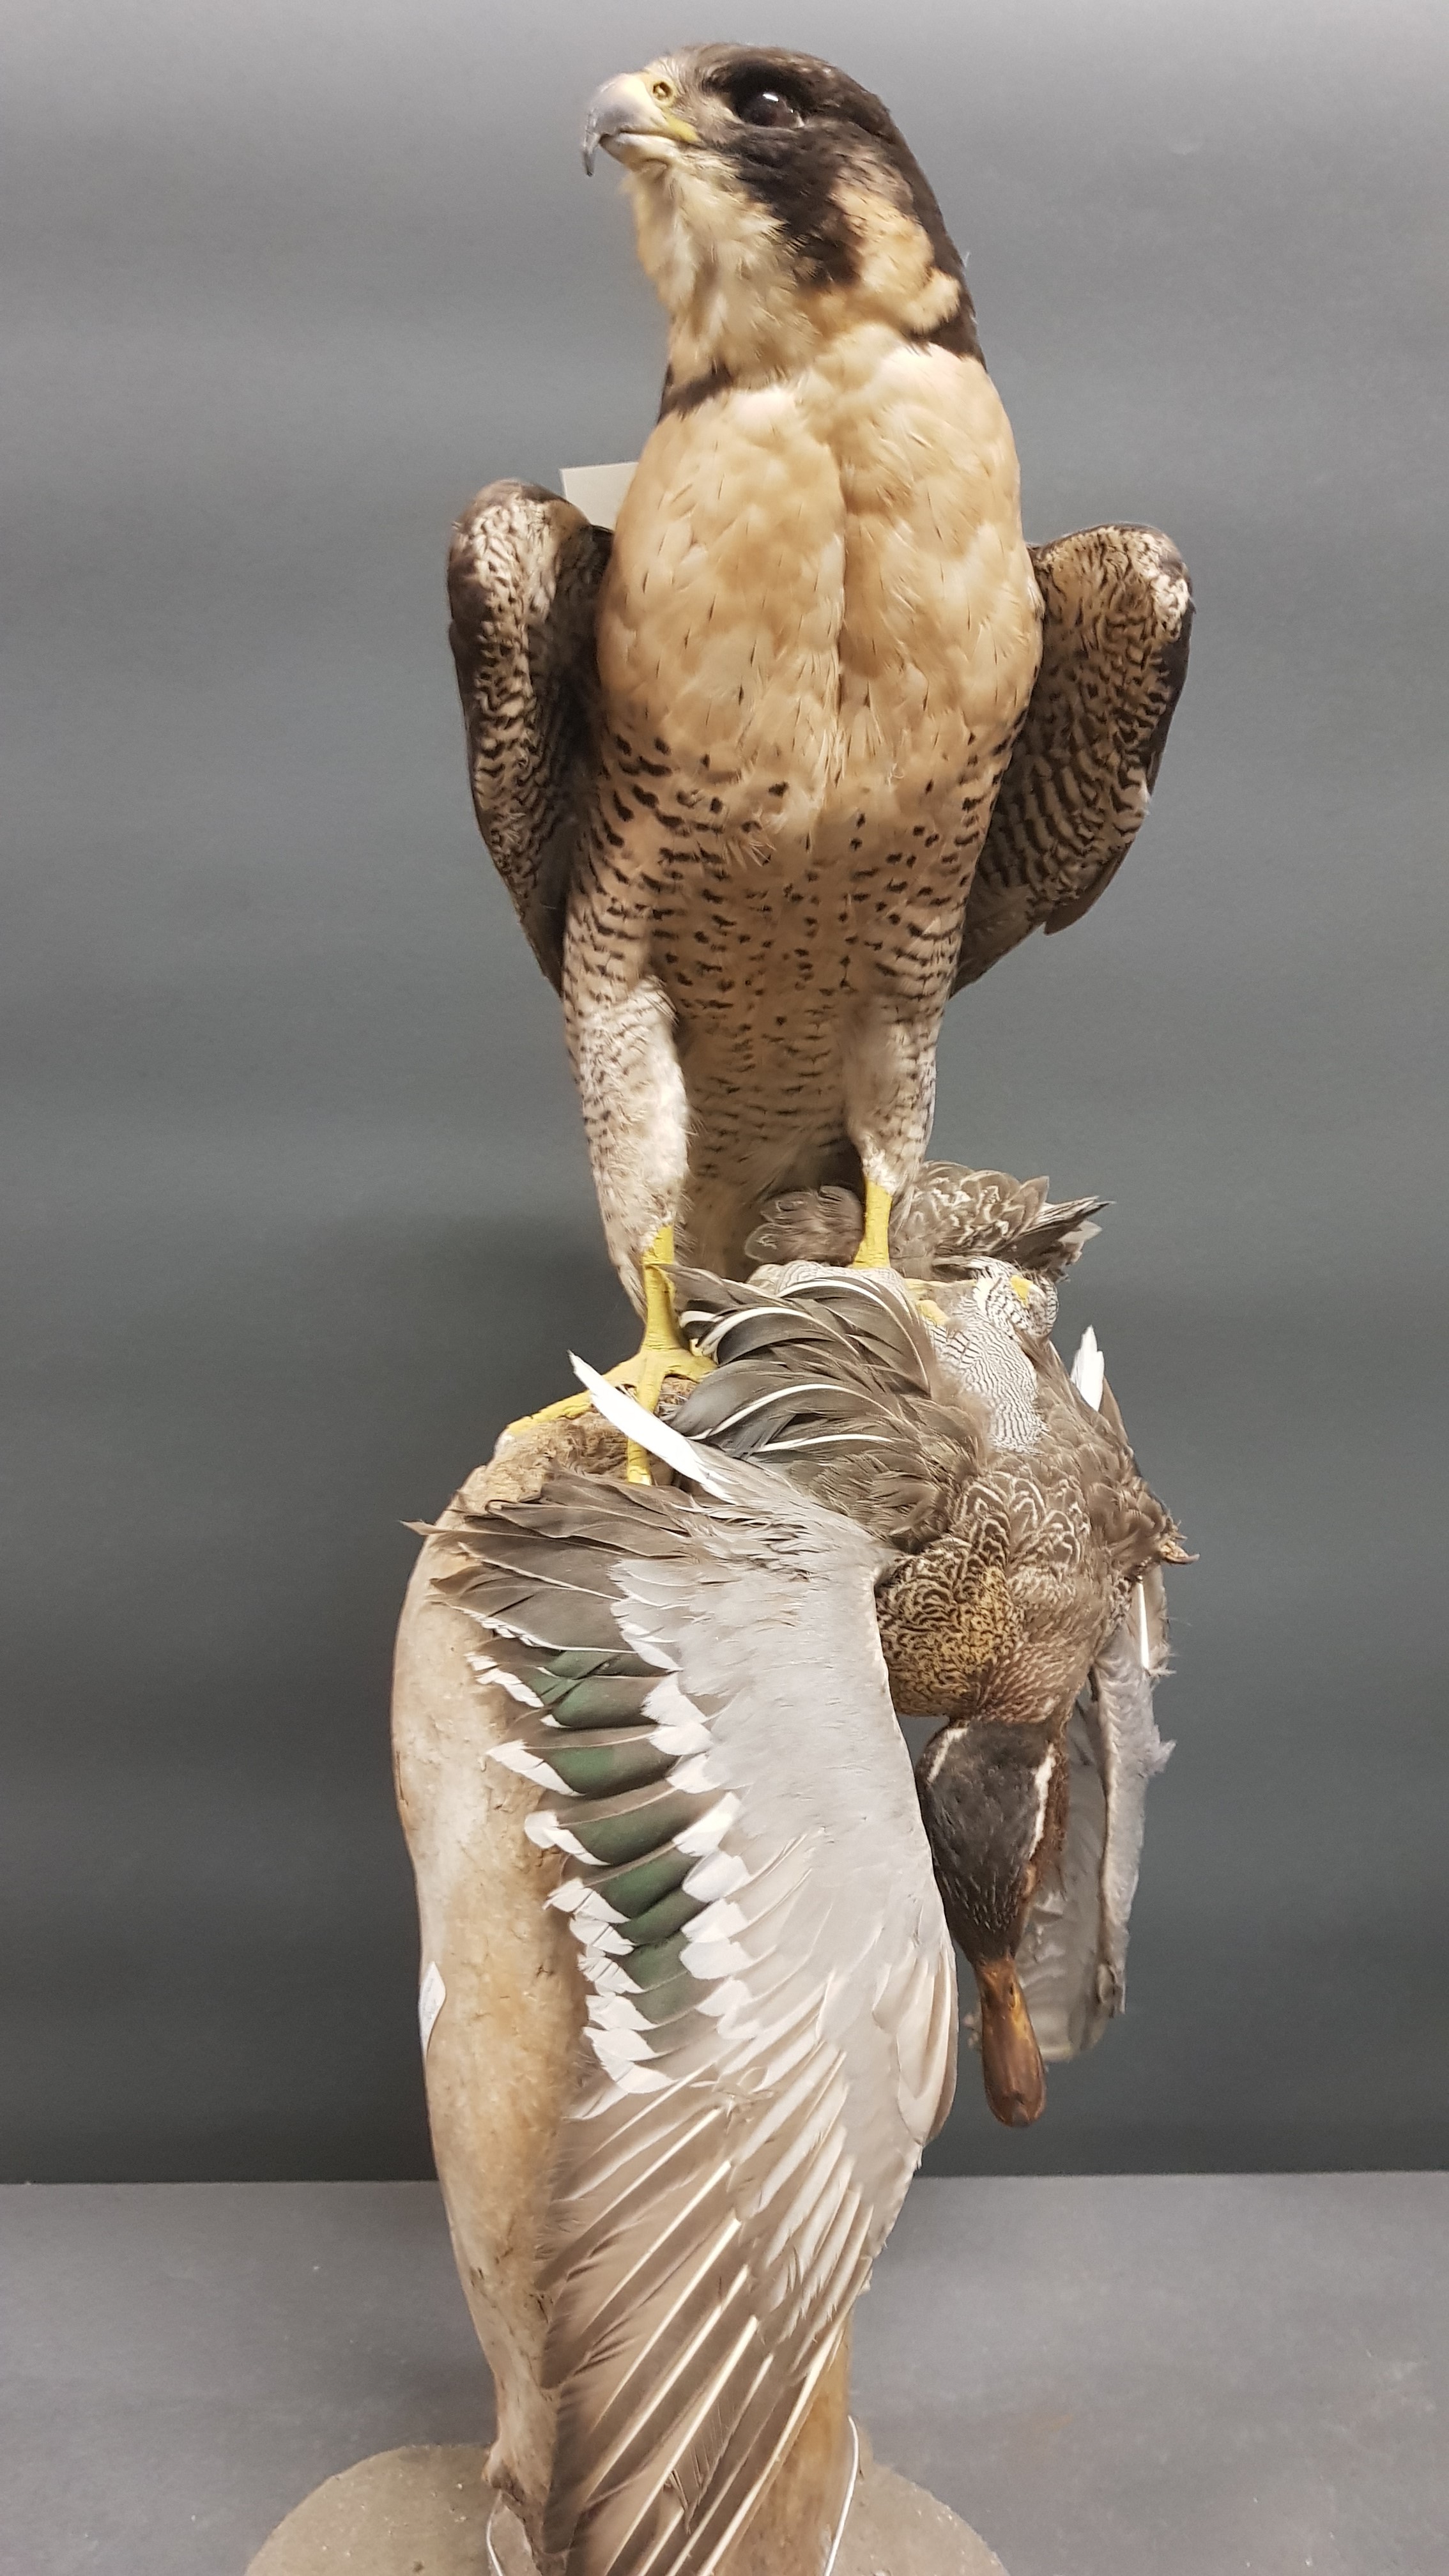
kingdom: Animalia
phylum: Chordata
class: Aves
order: Falconiformes
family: Falconidae
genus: Falco
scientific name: Falco peregrinus
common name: Peregrine falcon
